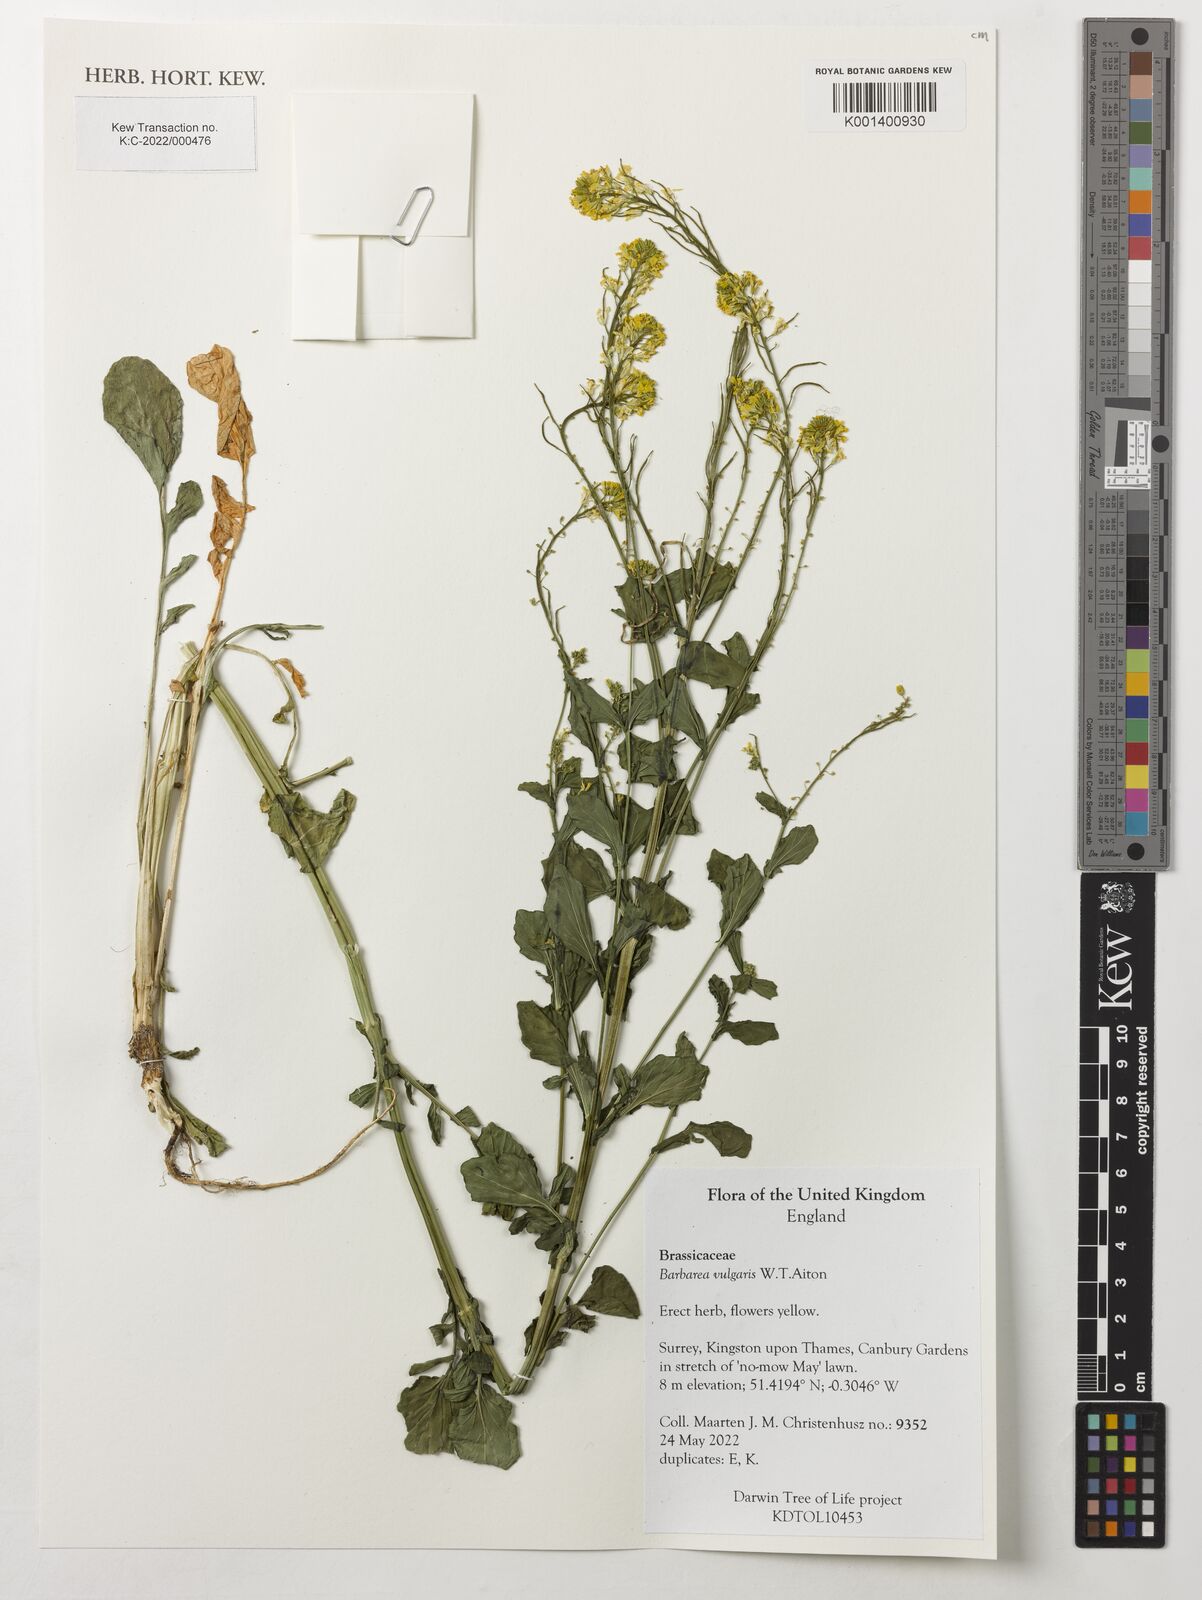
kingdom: Plantae
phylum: Tracheophyta
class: Magnoliopsida
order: Brassicales
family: Brassicaceae
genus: Barbarea
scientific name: Barbarea vulgaris
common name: Cressy-greens
